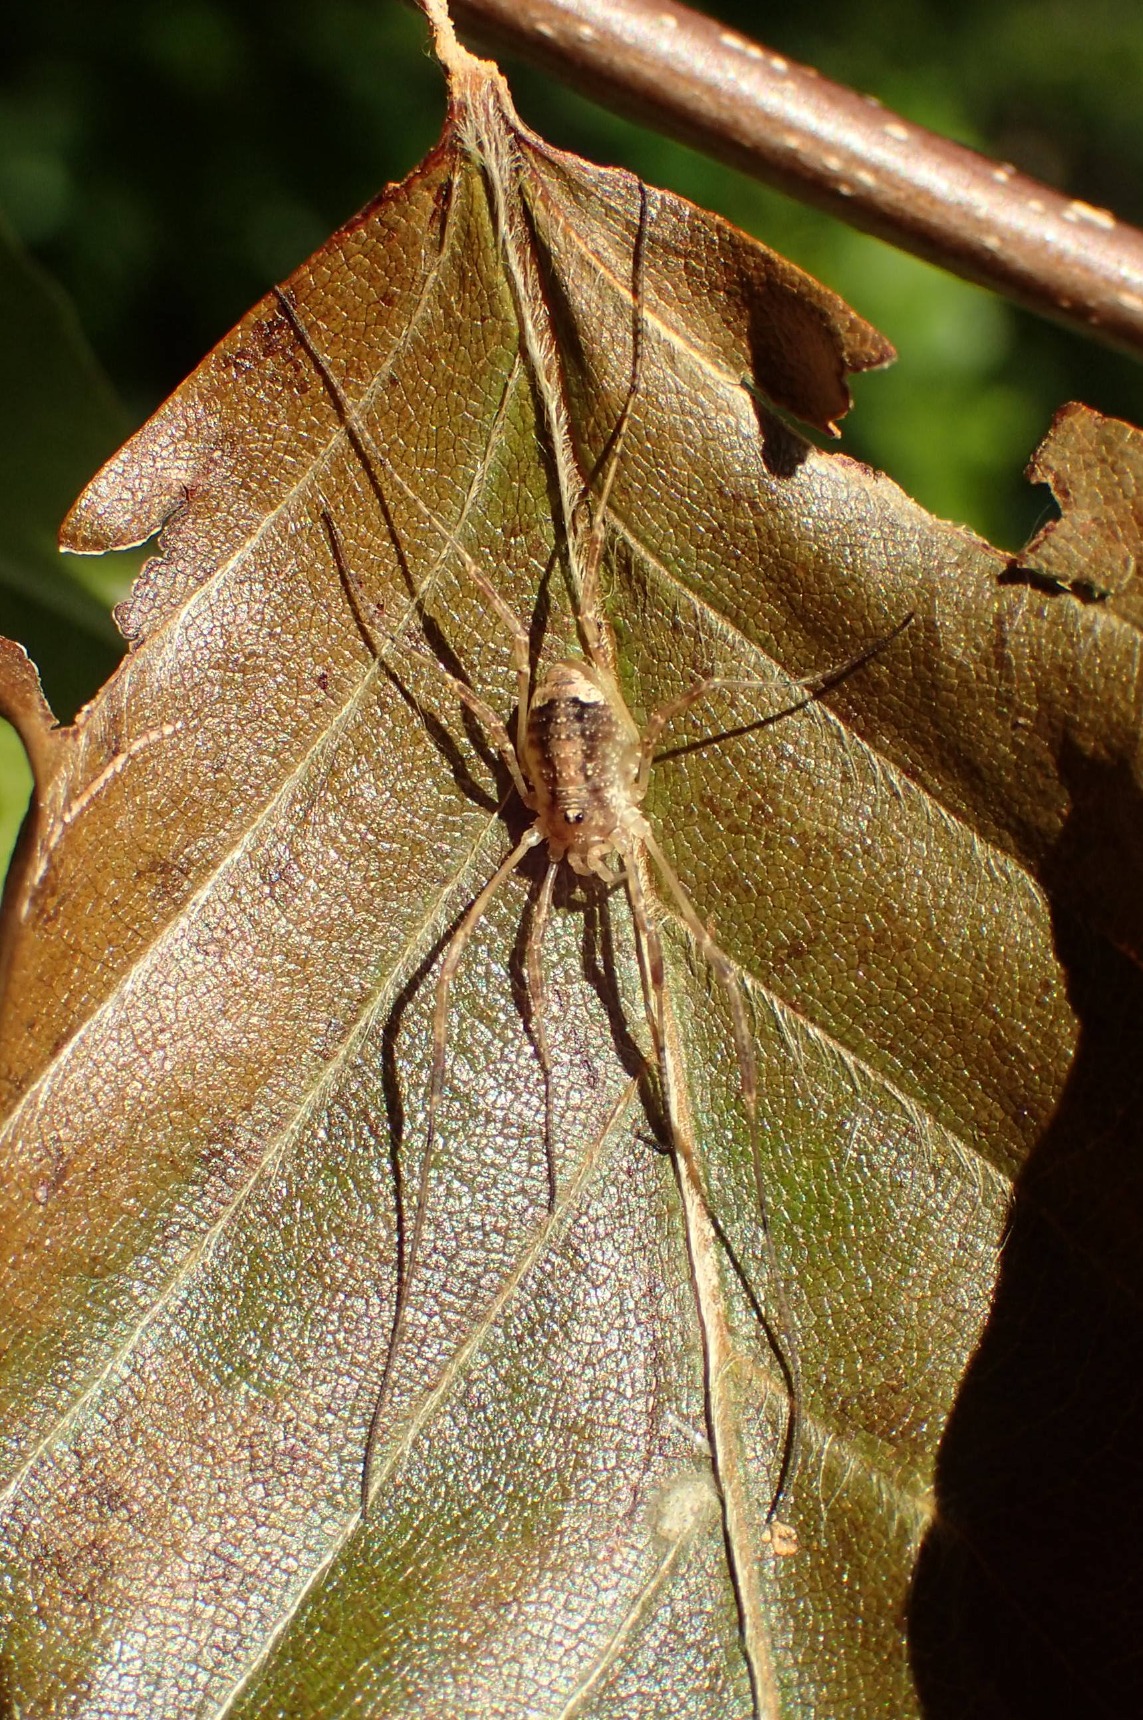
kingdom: Animalia
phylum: Arthropoda
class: Arachnida
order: Opiliones
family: Phalangiidae
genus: Paroligolophus
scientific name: Paroligolophus agrestis
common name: Hedemejer
